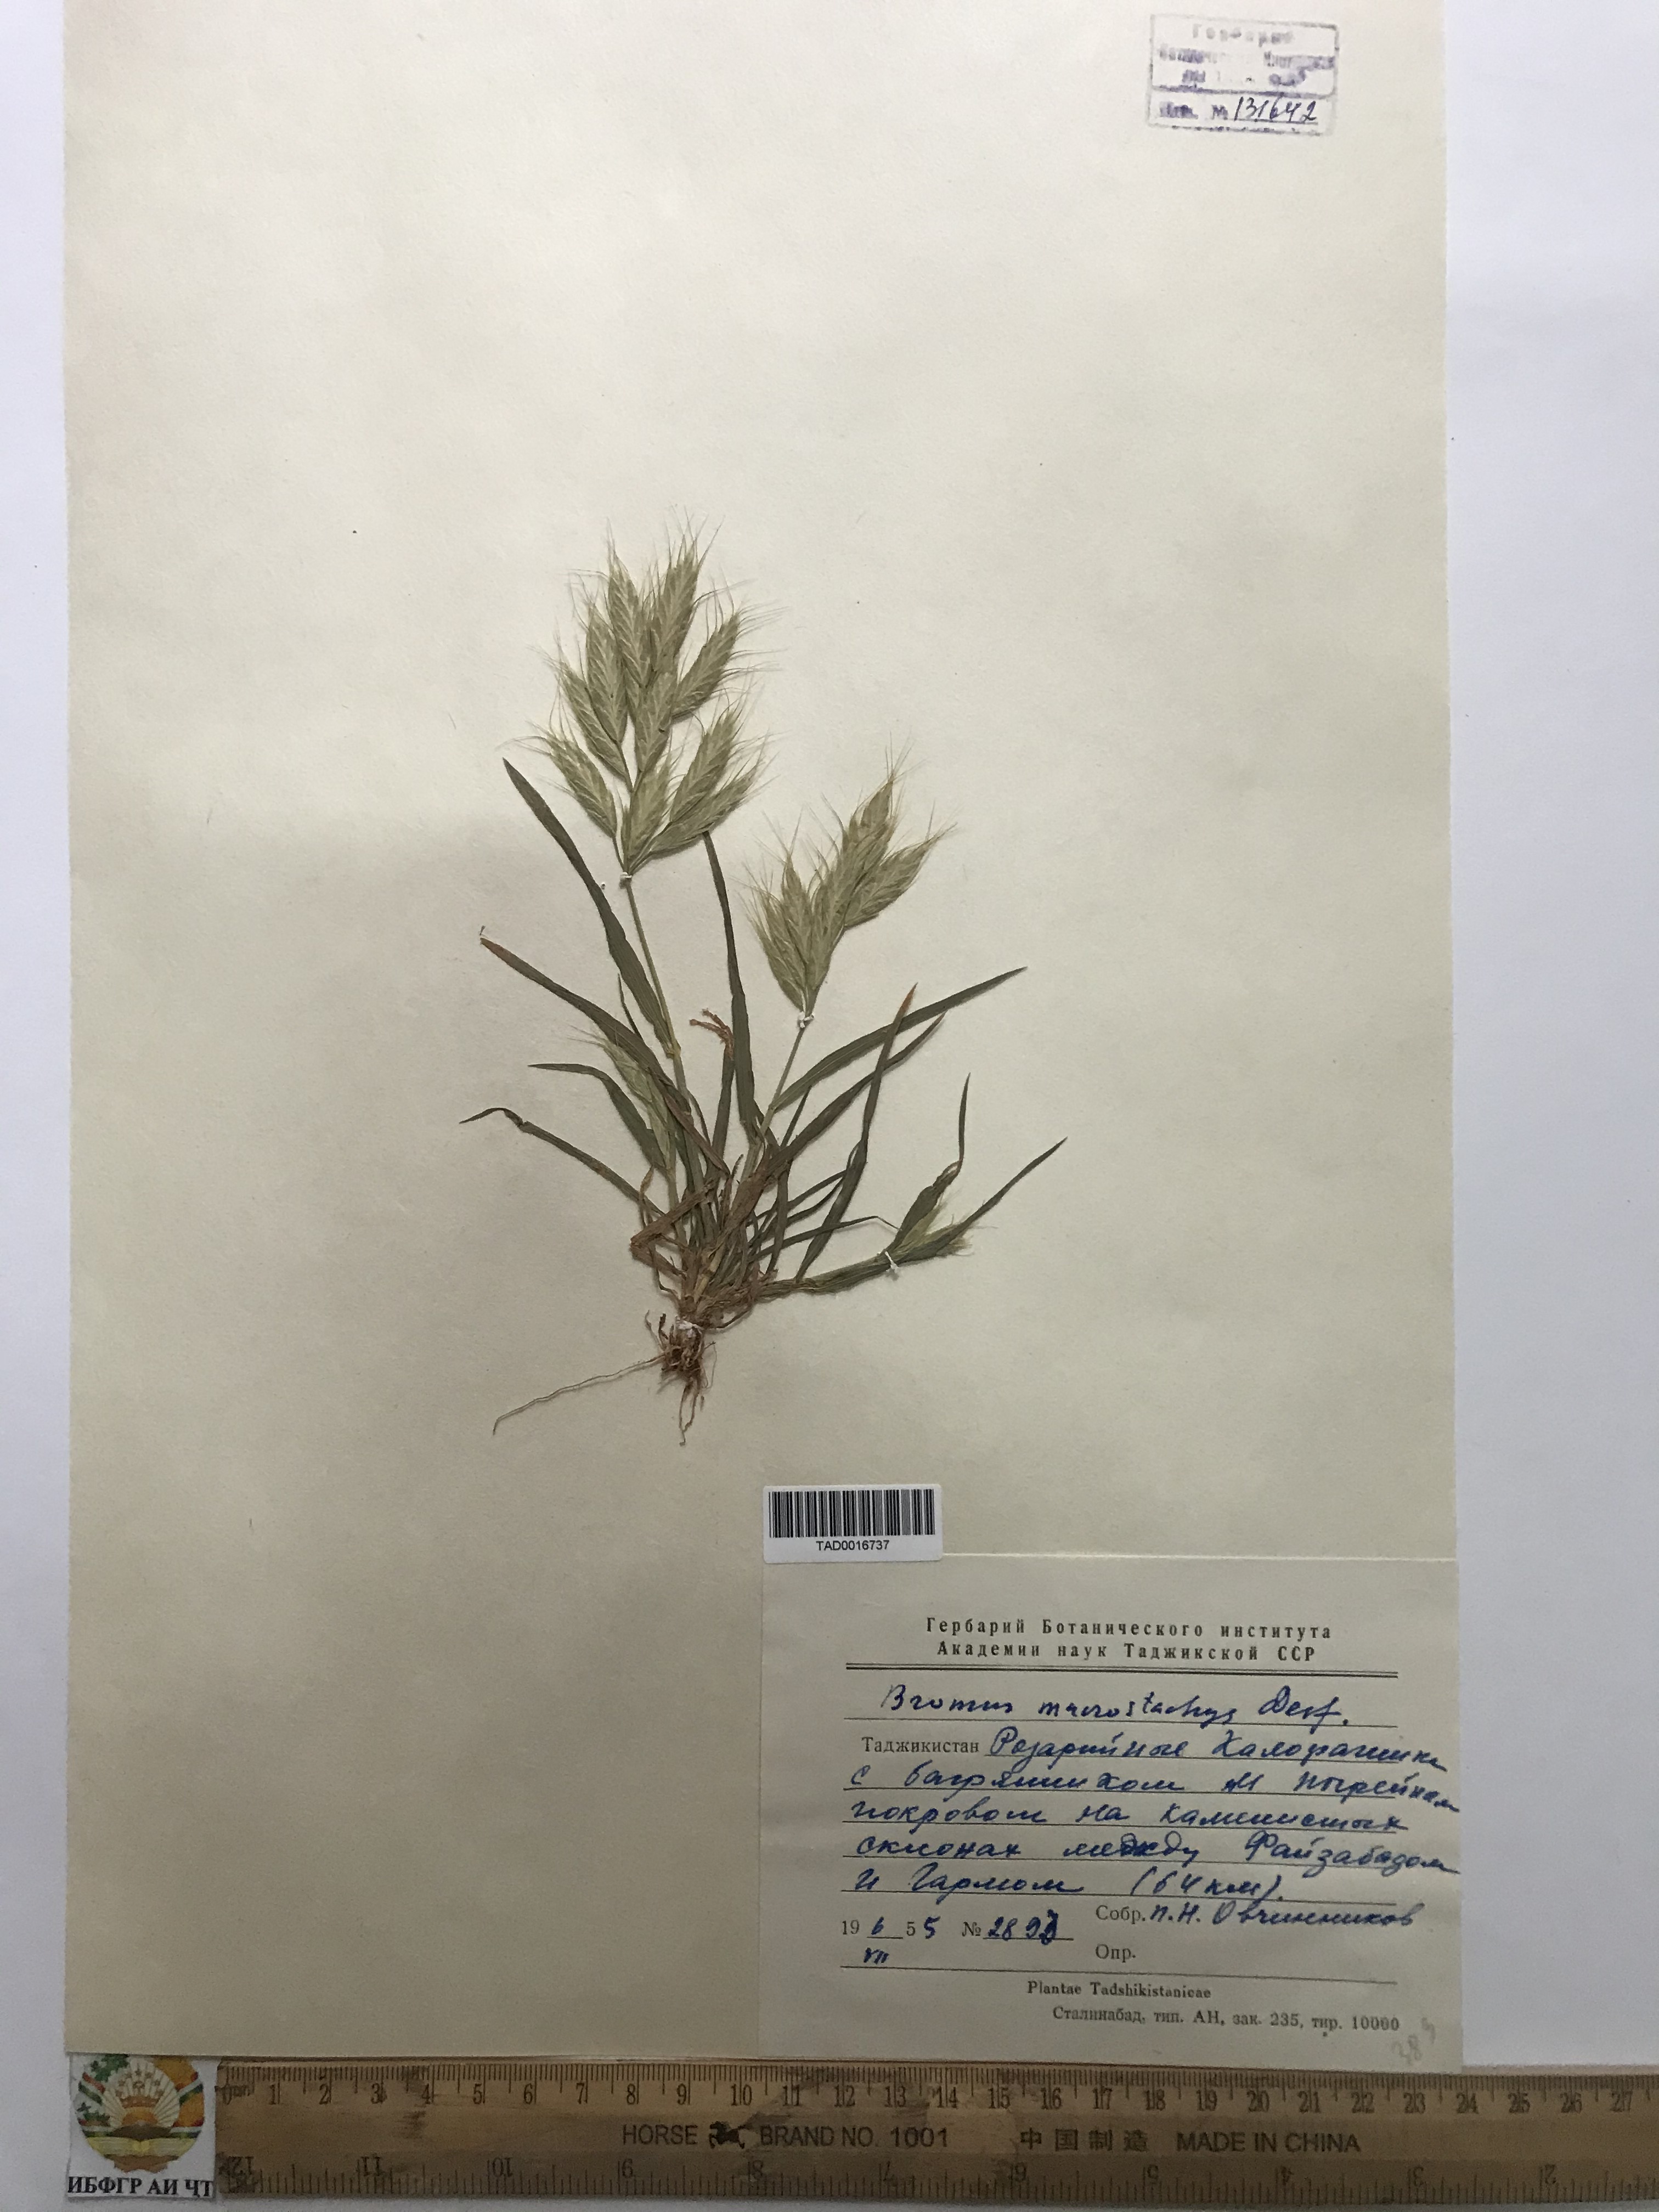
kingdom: Plantae
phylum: Tracheophyta
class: Liliopsida
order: Poales
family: Poaceae
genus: Bromus
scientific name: Bromus lanceolatus
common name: Mediterranean brome
